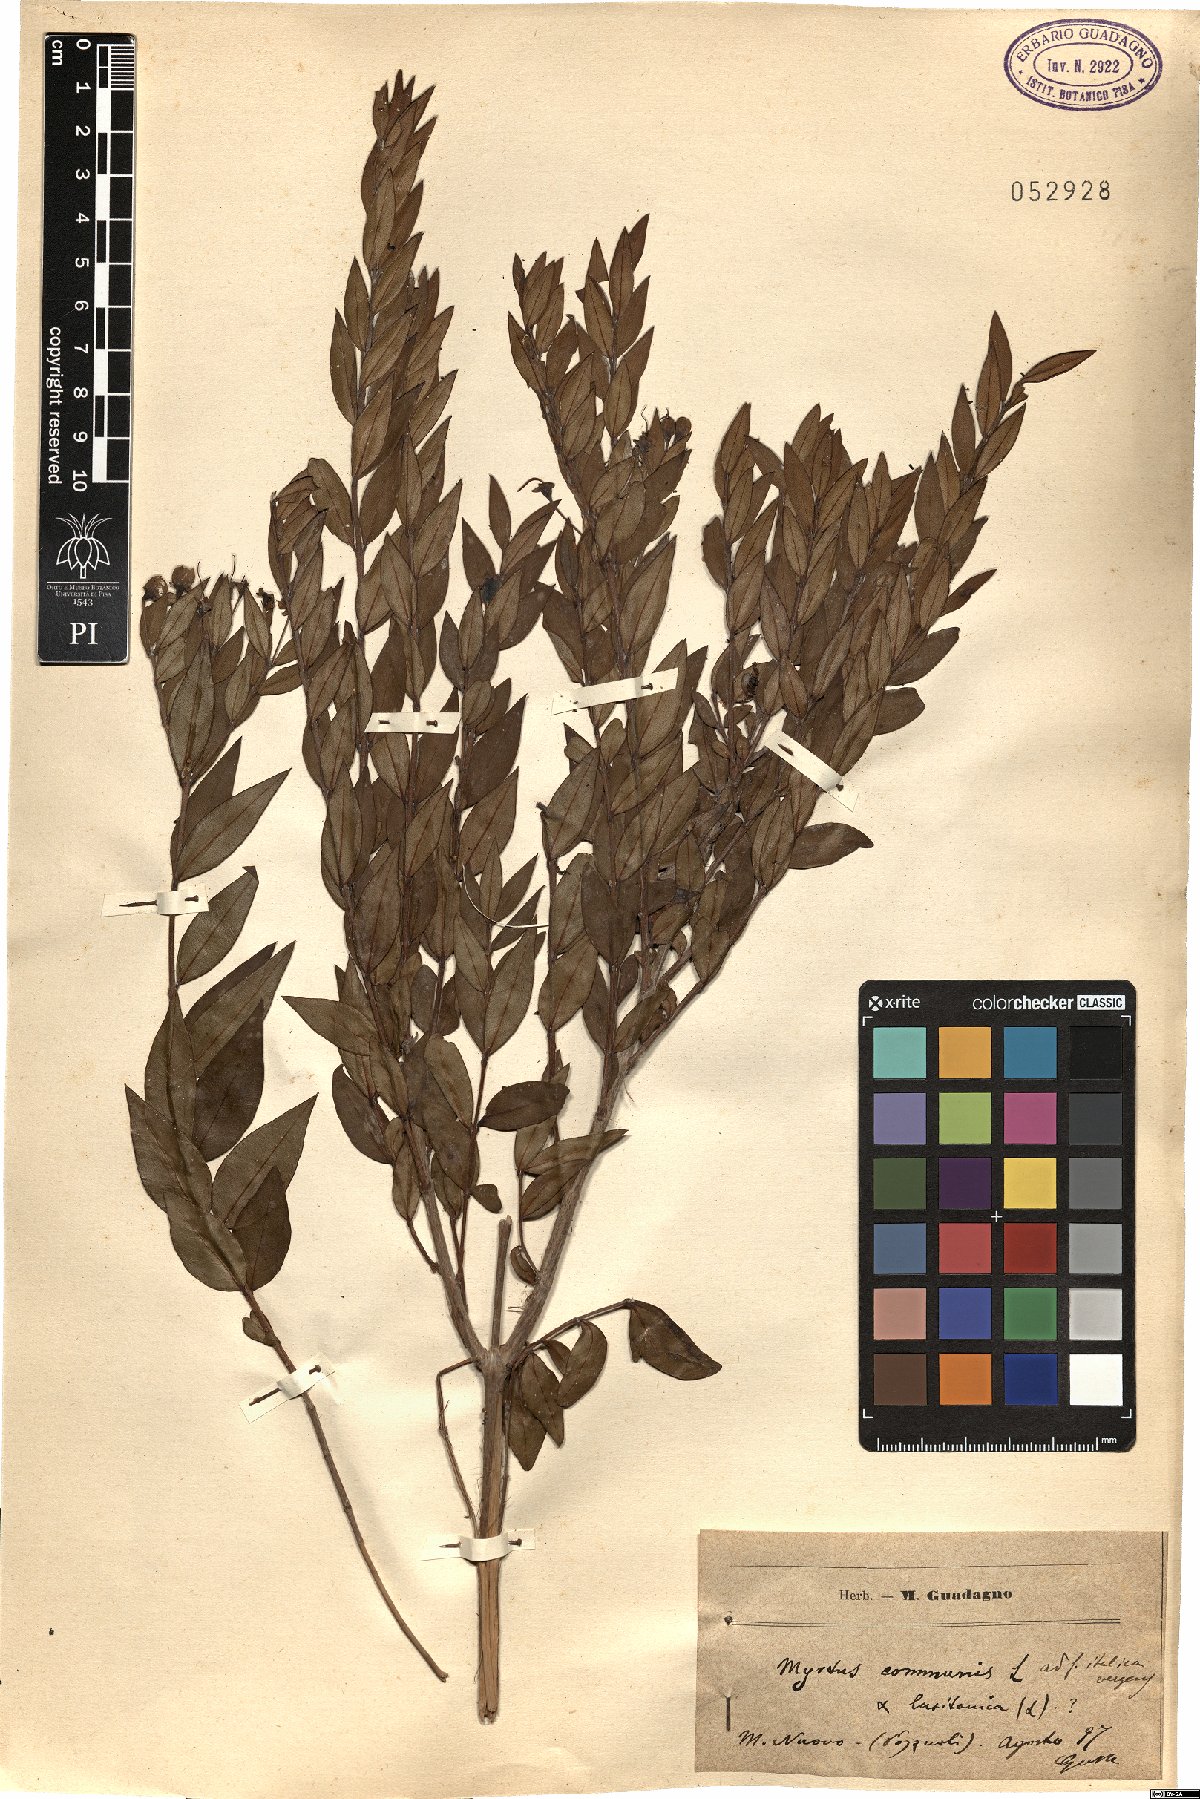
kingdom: Plantae
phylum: Tracheophyta
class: Magnoliopsida
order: Myrtales
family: Myrtaceae
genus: Myrtus
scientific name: Myrtus communis
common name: Myrtle
